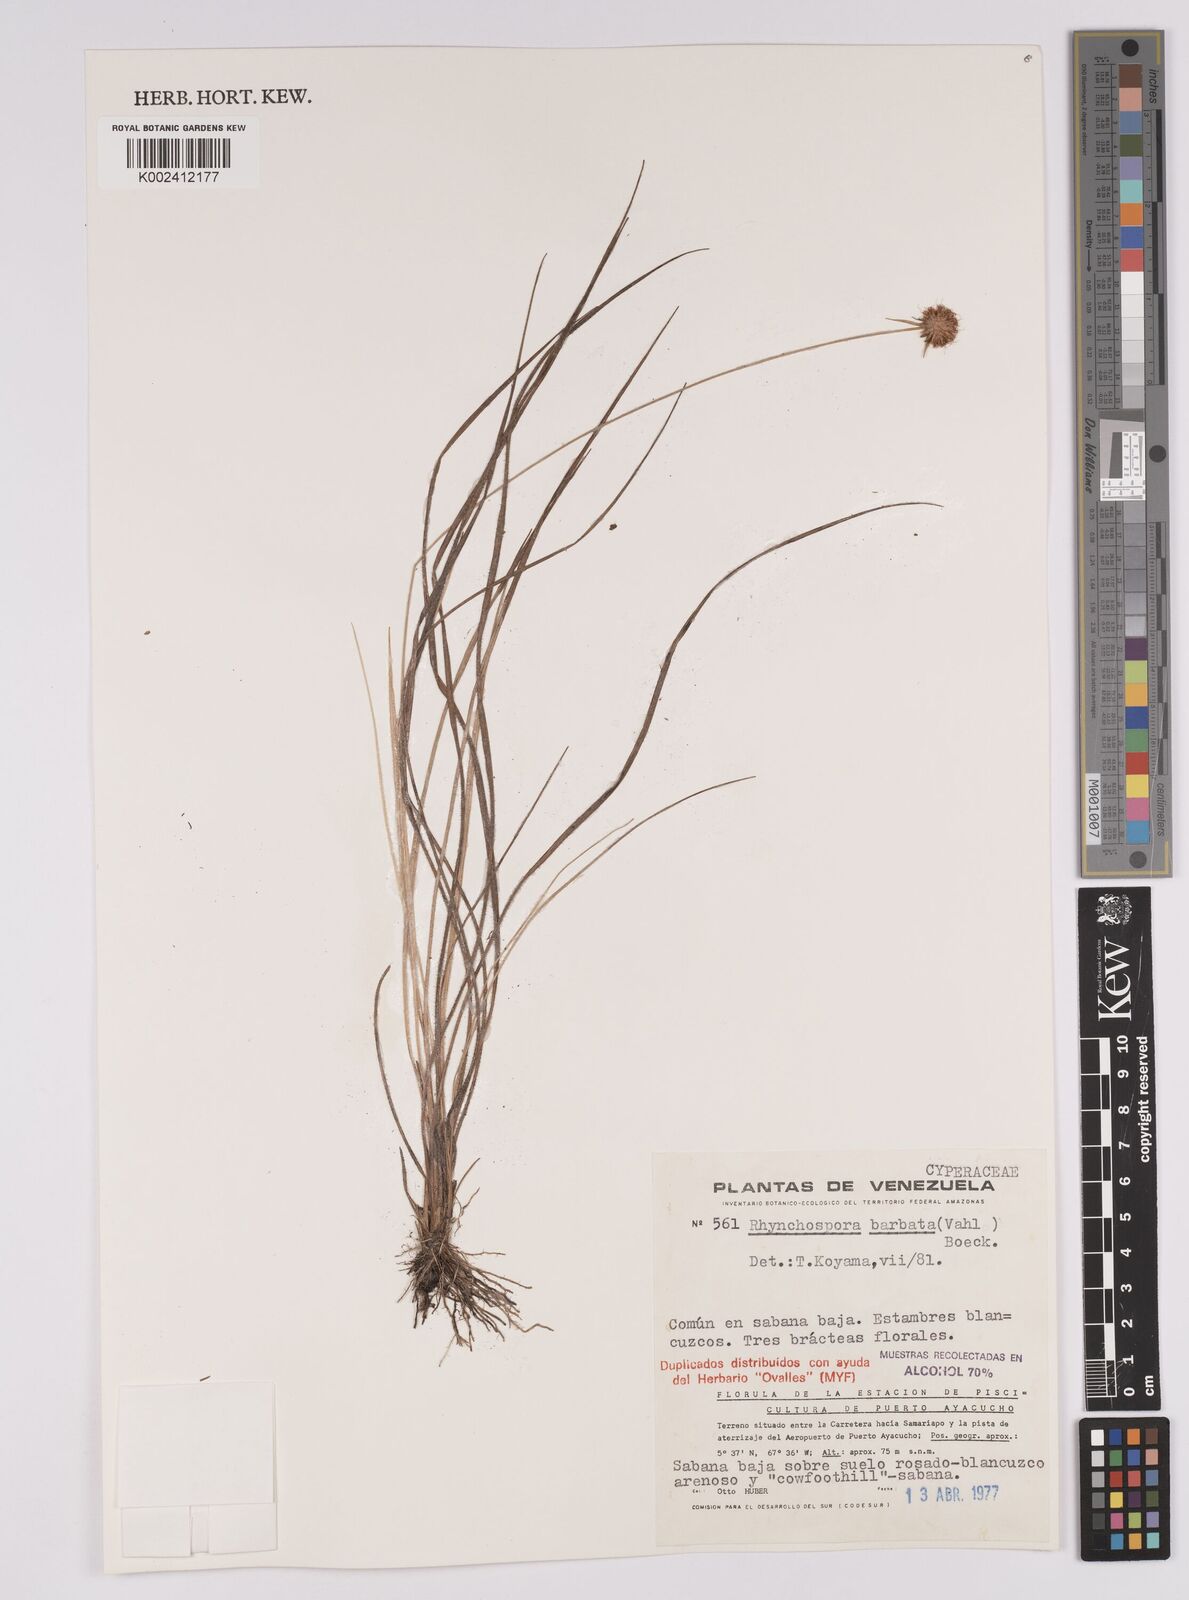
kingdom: Plantae
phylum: Tracheophyta
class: Liliopsida
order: Poales
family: Cyperaceae
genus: Rhynchospora
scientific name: Rhynchospora barbata
